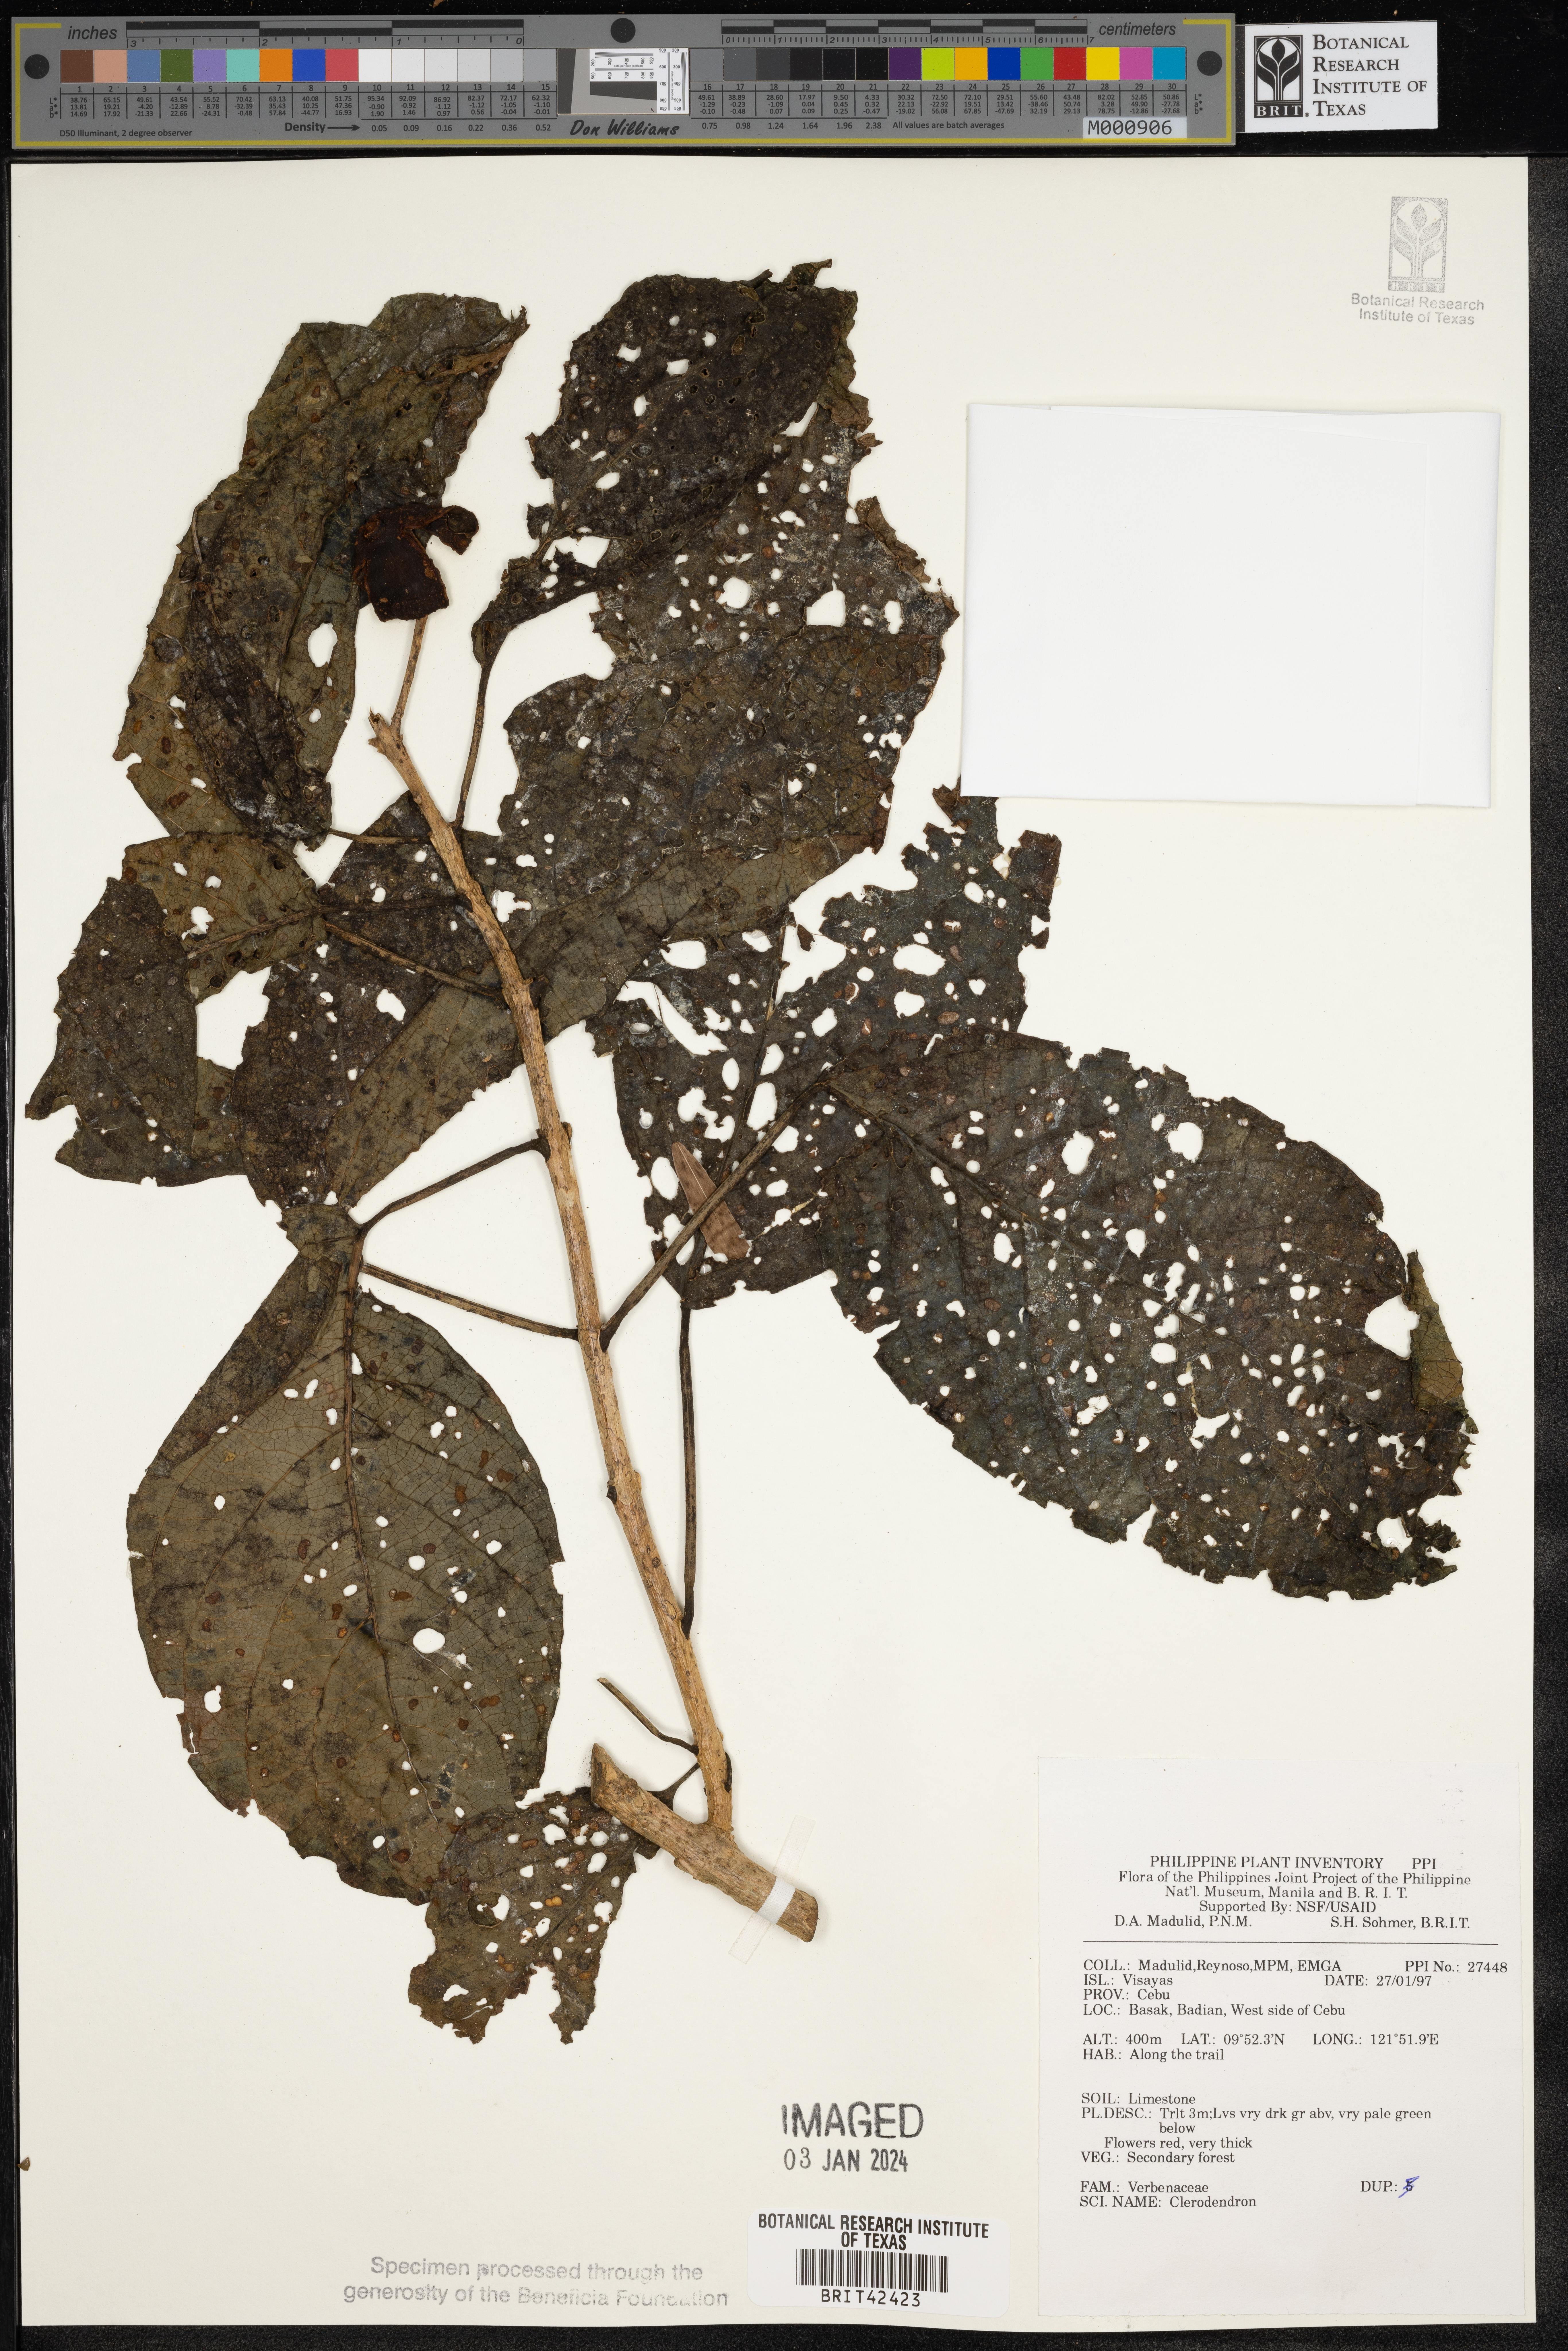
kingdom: Plantae
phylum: Tracheophyta
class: Magnoliopsida
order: Lamiales
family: Lamiaceae
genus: Clerodendrum
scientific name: Clerodendrum
